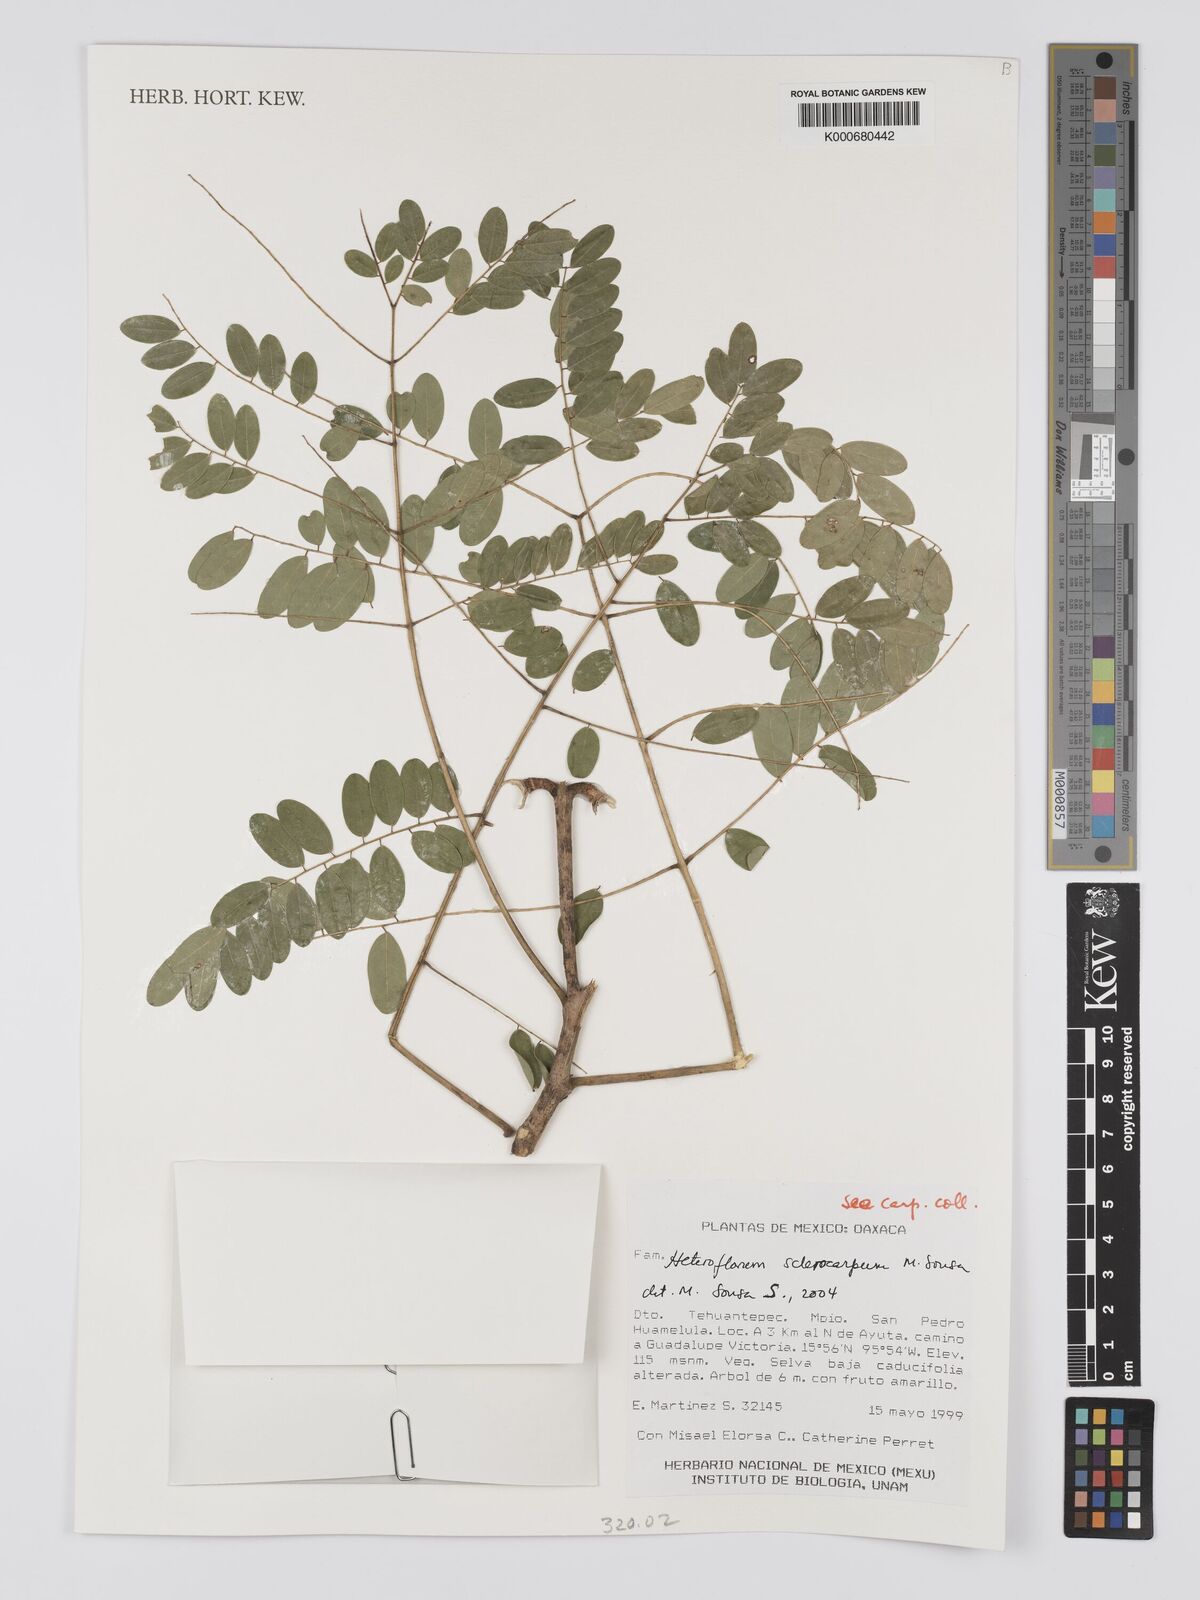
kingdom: Plantae
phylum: Tracheophyta
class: Magnoliopsida
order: Fabales
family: Fabaceae
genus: Heteroflorum
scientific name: Heteroflorum sclerocarpum
